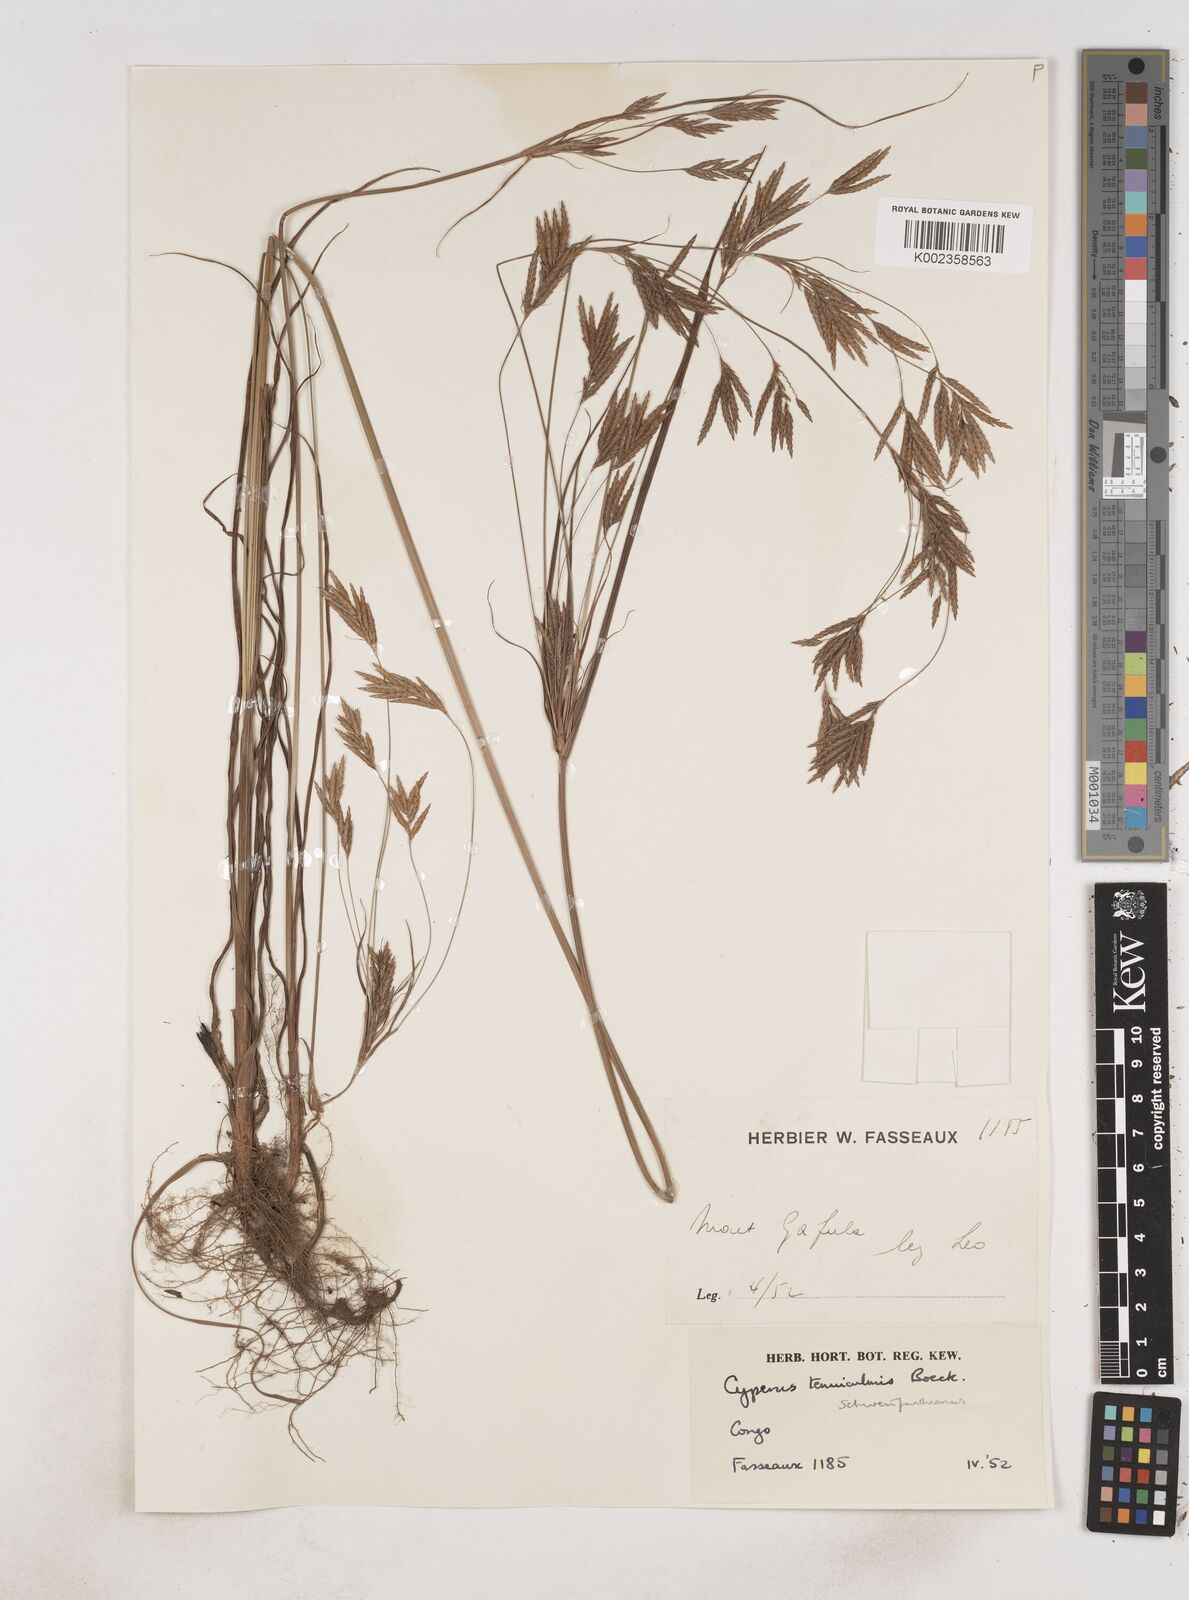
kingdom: Plantae
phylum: Tracheophyta
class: Liliopsida
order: Poales
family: Cyperaceae
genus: Cyperus
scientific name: Cyperus tenuiculmis
